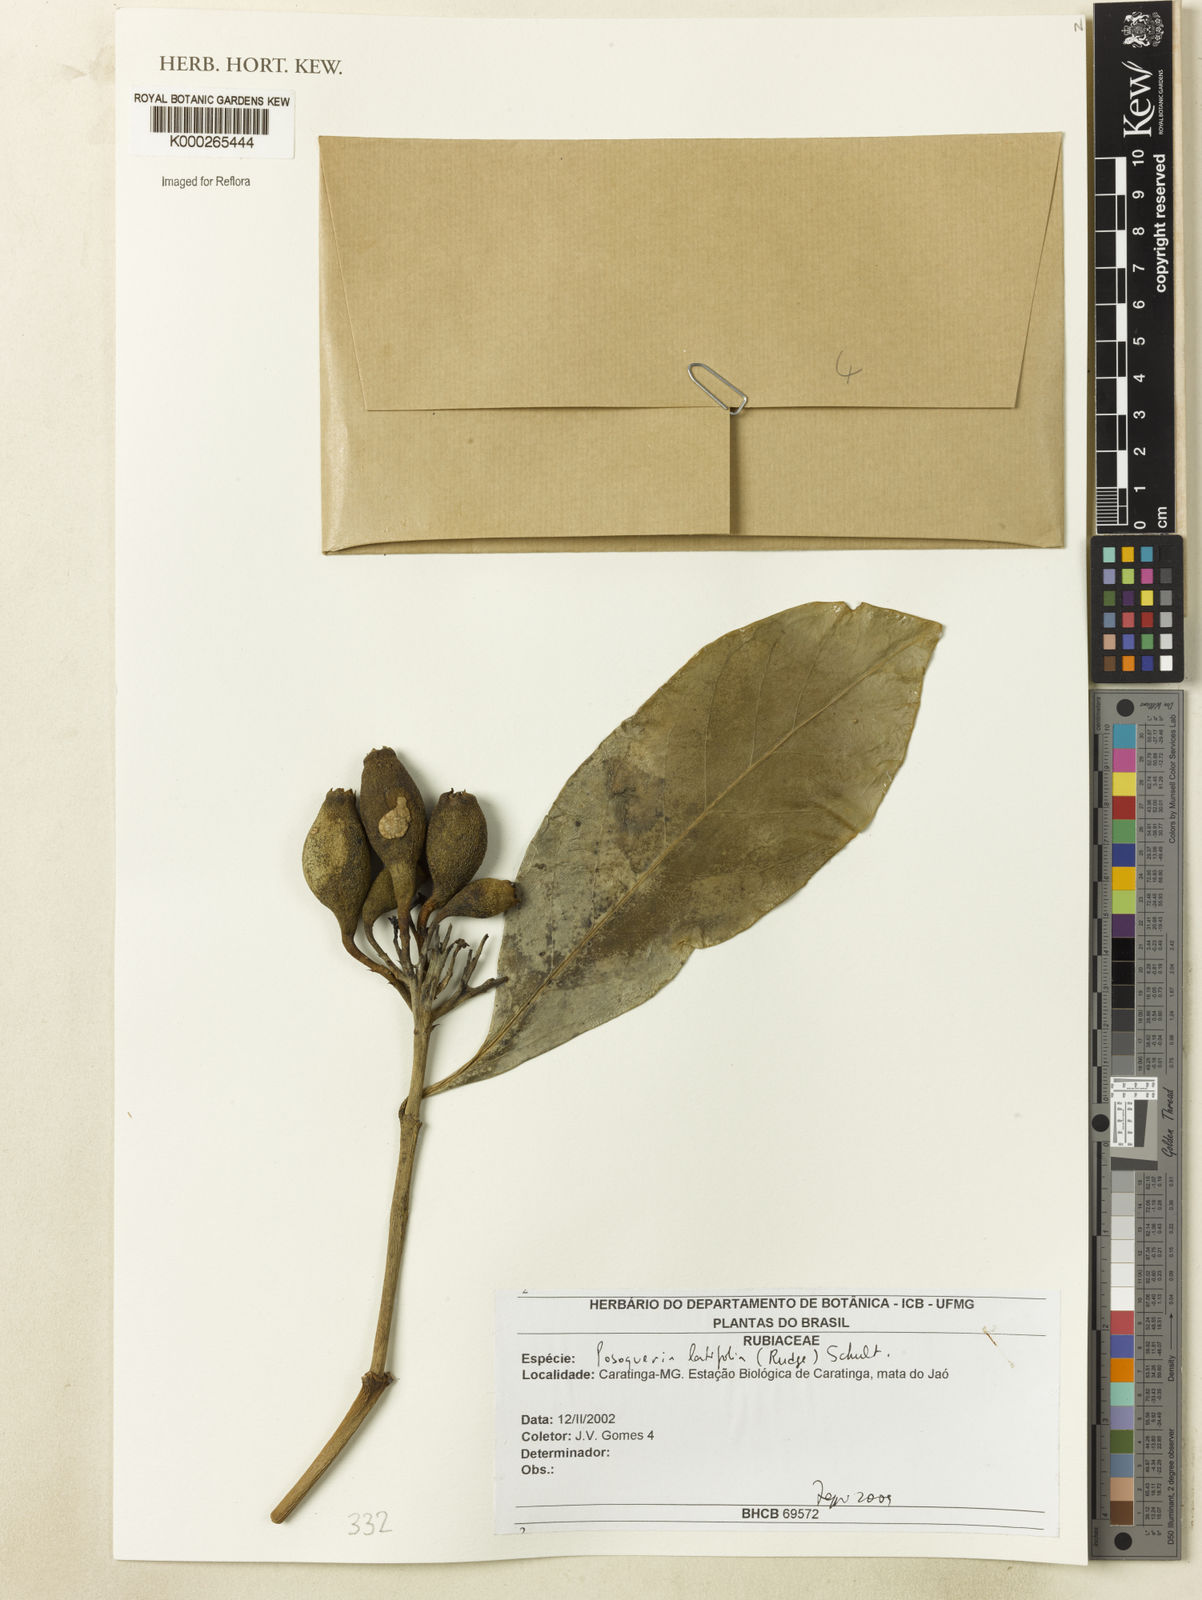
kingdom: Plantae
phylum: Tracheophyta
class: Magnoliopsida
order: Gentianales
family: Rubiaceae
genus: Posoqueria
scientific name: Posoqueria latifolia
